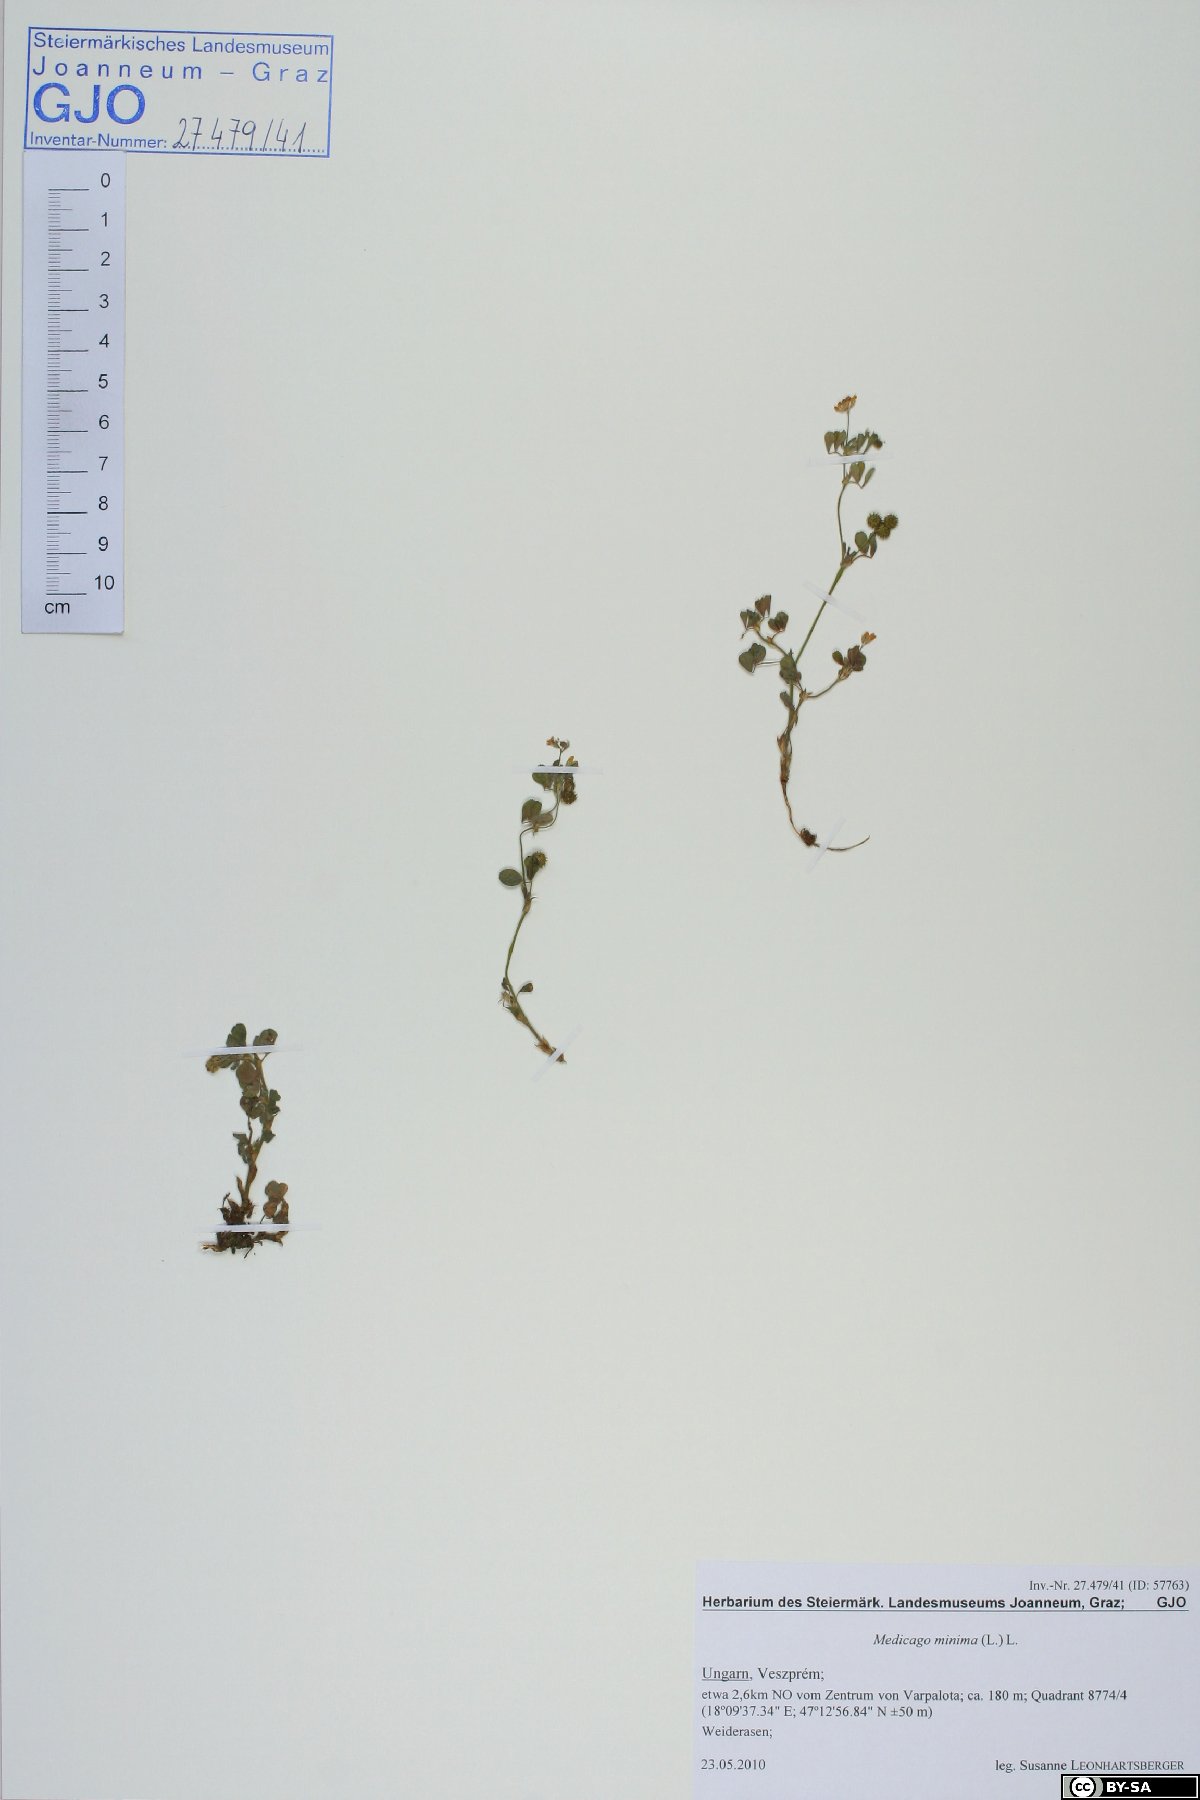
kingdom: Plantae
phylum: Tracheophyta
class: Magnoliopsida
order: Fabales
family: Fabaceae
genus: Medicago
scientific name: Medicago minima
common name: Little bur-clover
